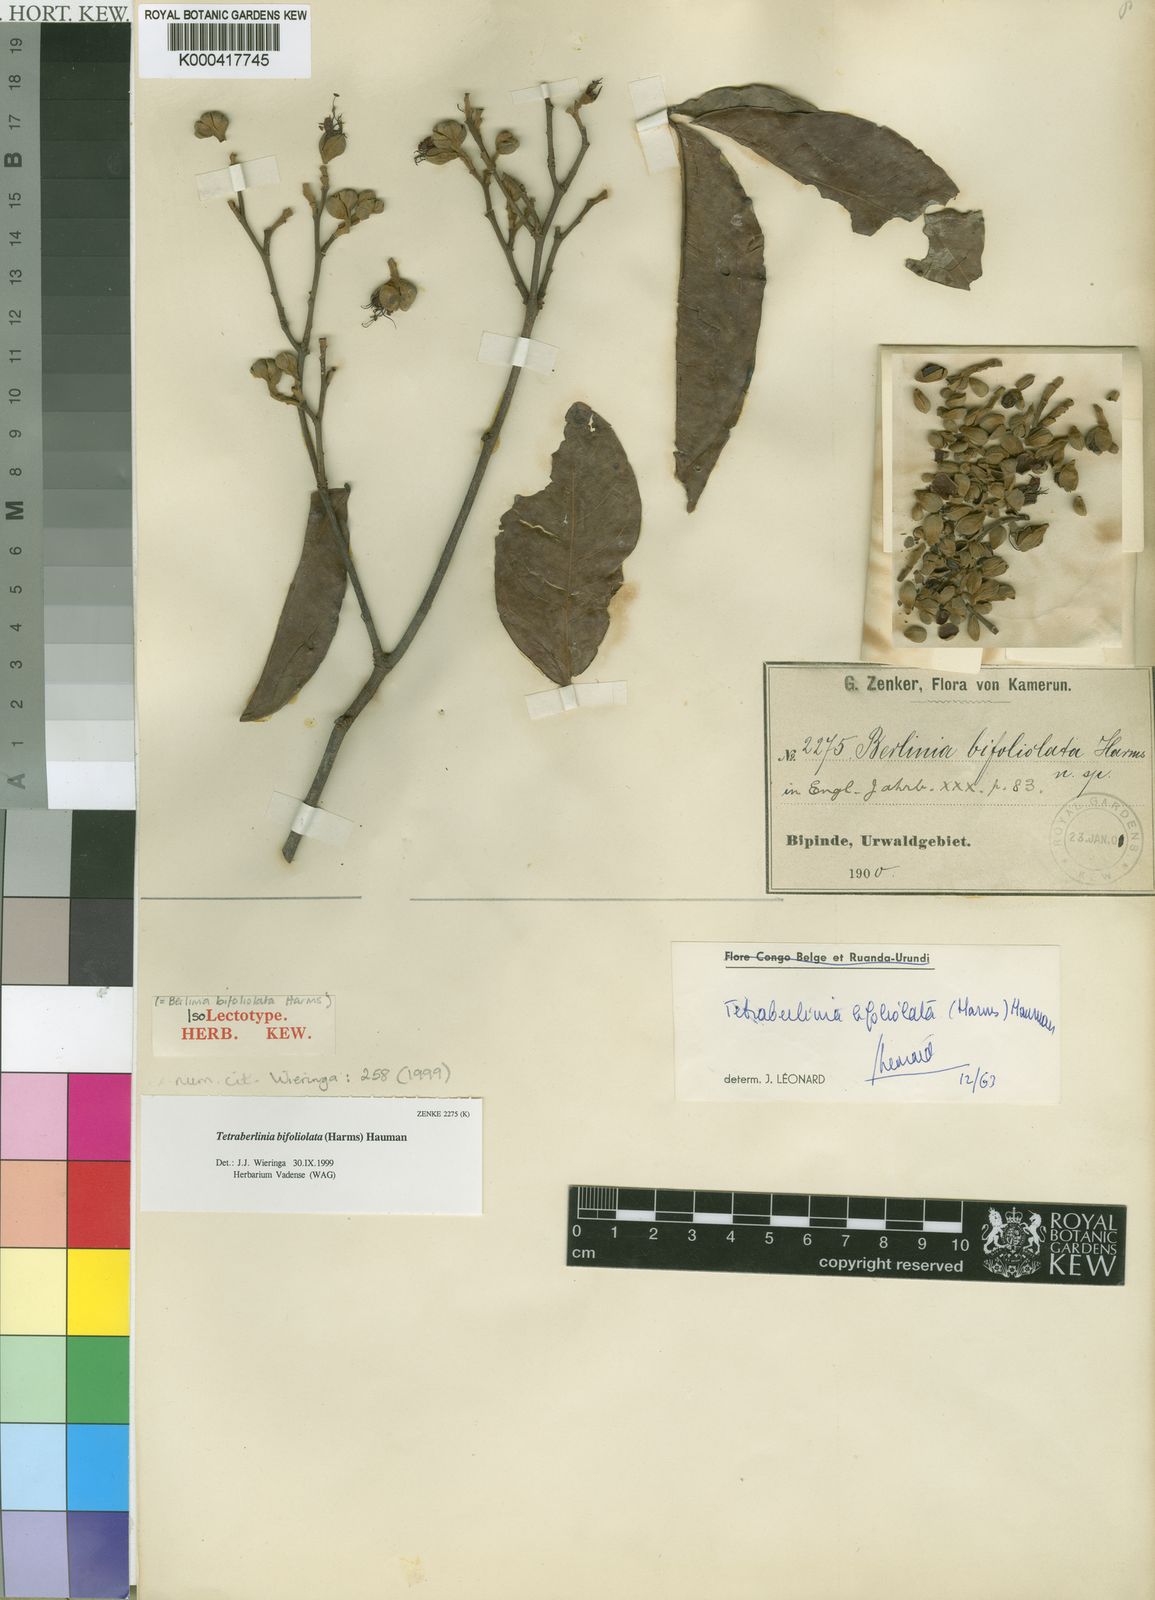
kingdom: Plantae
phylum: Tracheophyta
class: Magnoliopsida
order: Fabales
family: Fabaceae
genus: Tetraberlinia
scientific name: Tetraberlinia bifoliolata
